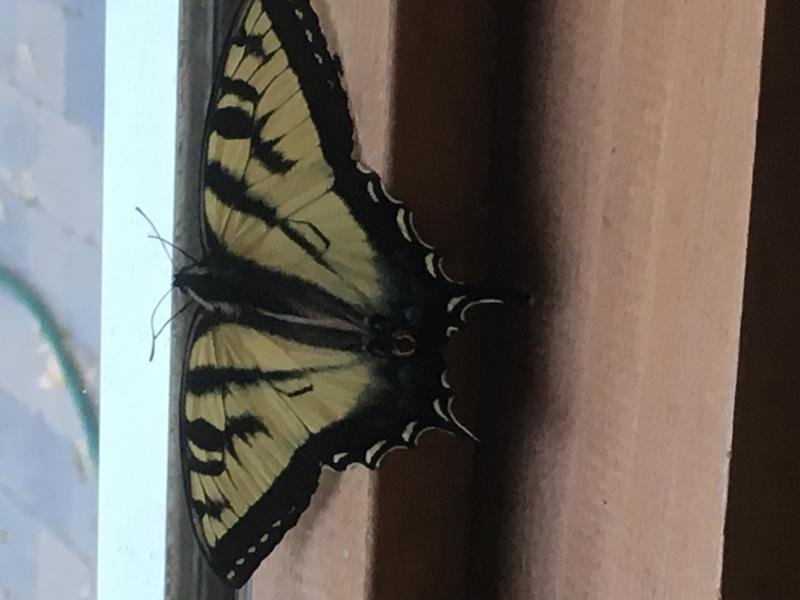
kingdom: Animalia
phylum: Arthropoda
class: Insecta
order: Lepidoptera
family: Papilionidae
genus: Pterourus
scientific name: Pterourus canadensis
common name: Canadian Tiger Swallowtail
